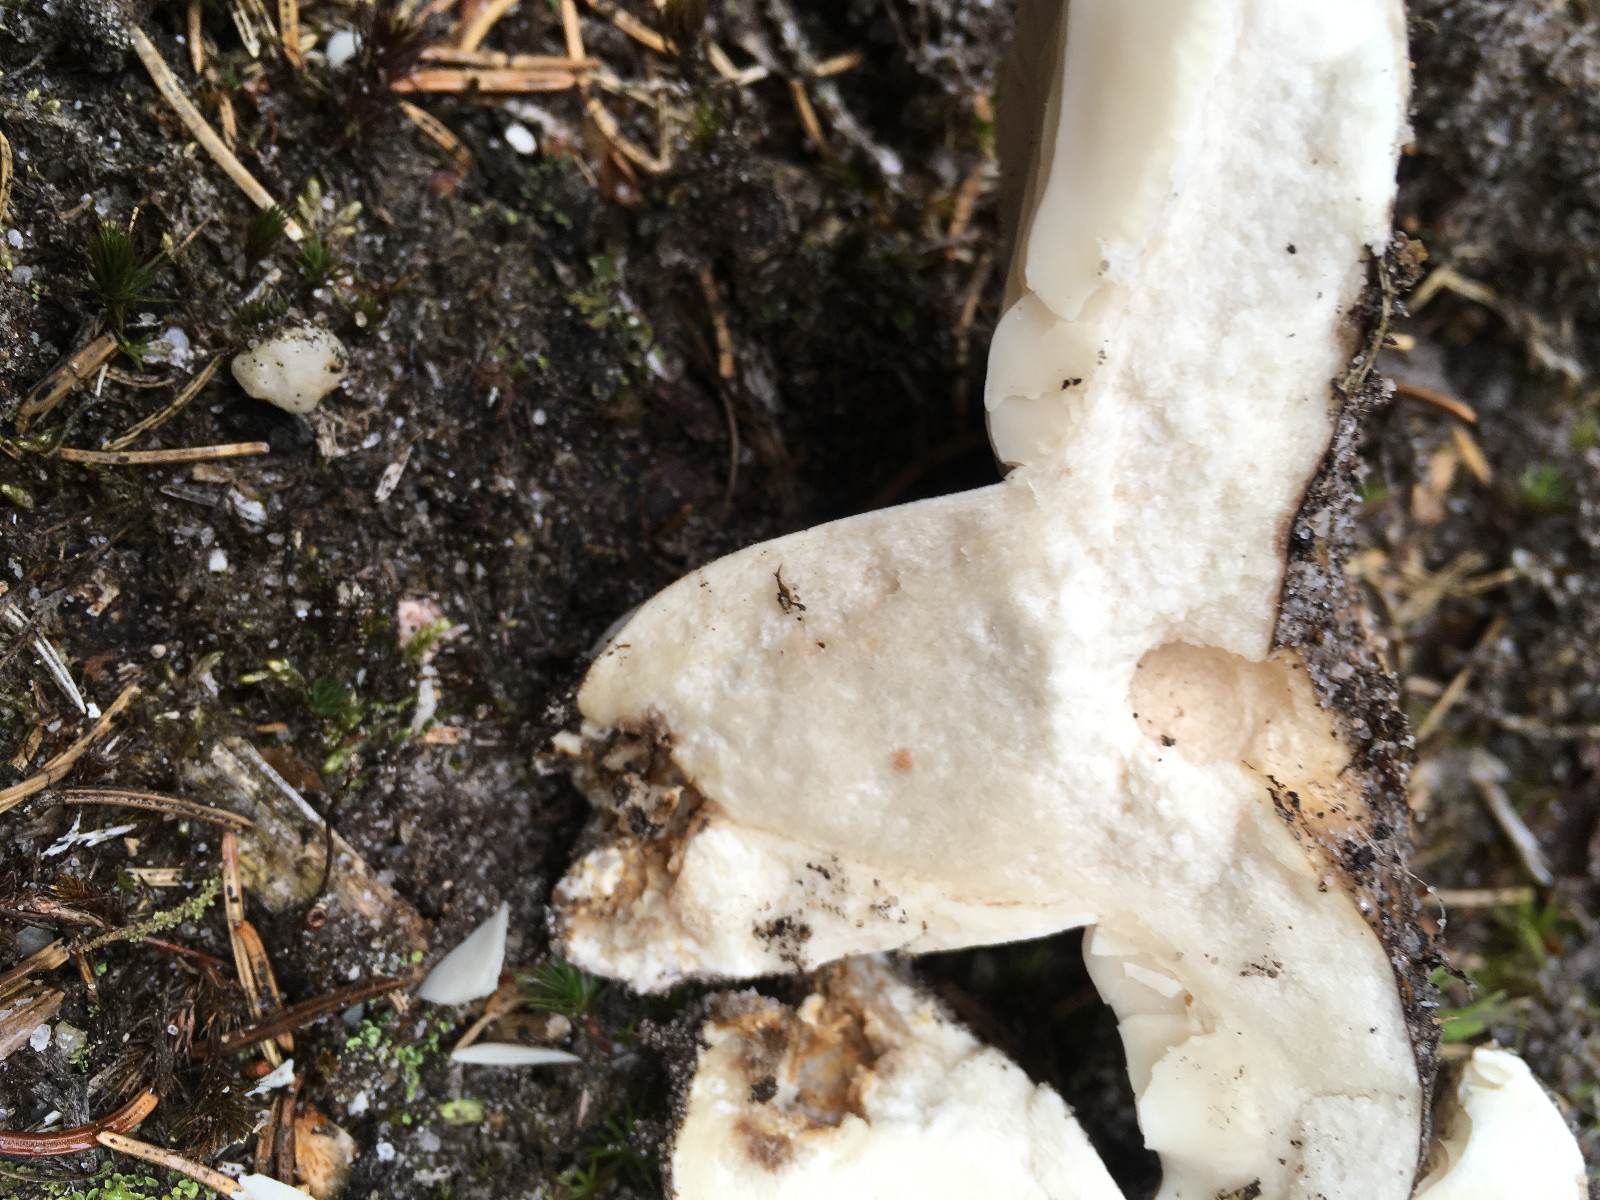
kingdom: Fungi
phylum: Basidiomycota
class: Agaricomycetes
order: Russulales
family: Russulaceae
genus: Russula
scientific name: Russula adusta
